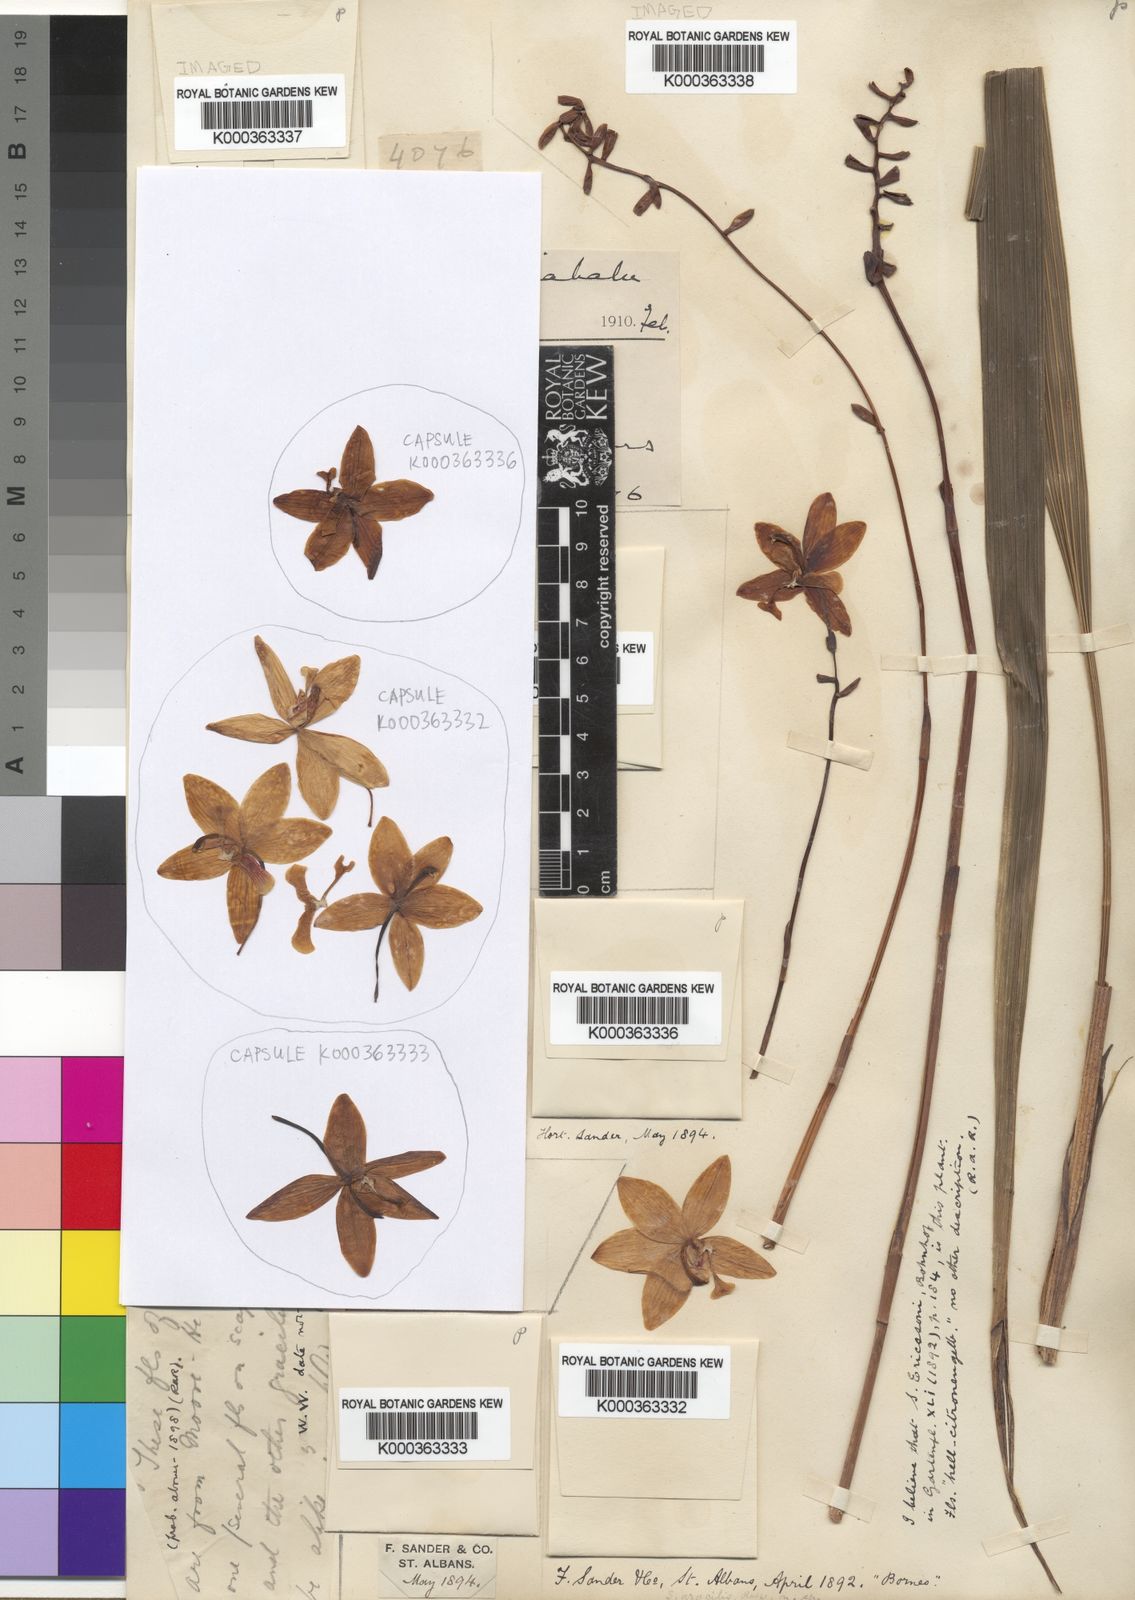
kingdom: Plantae
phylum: Tracheophyta
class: Liliopsida
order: Asparagales
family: Orchidaceae
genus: Spathoglottis
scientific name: Spathoglottis gracilis
